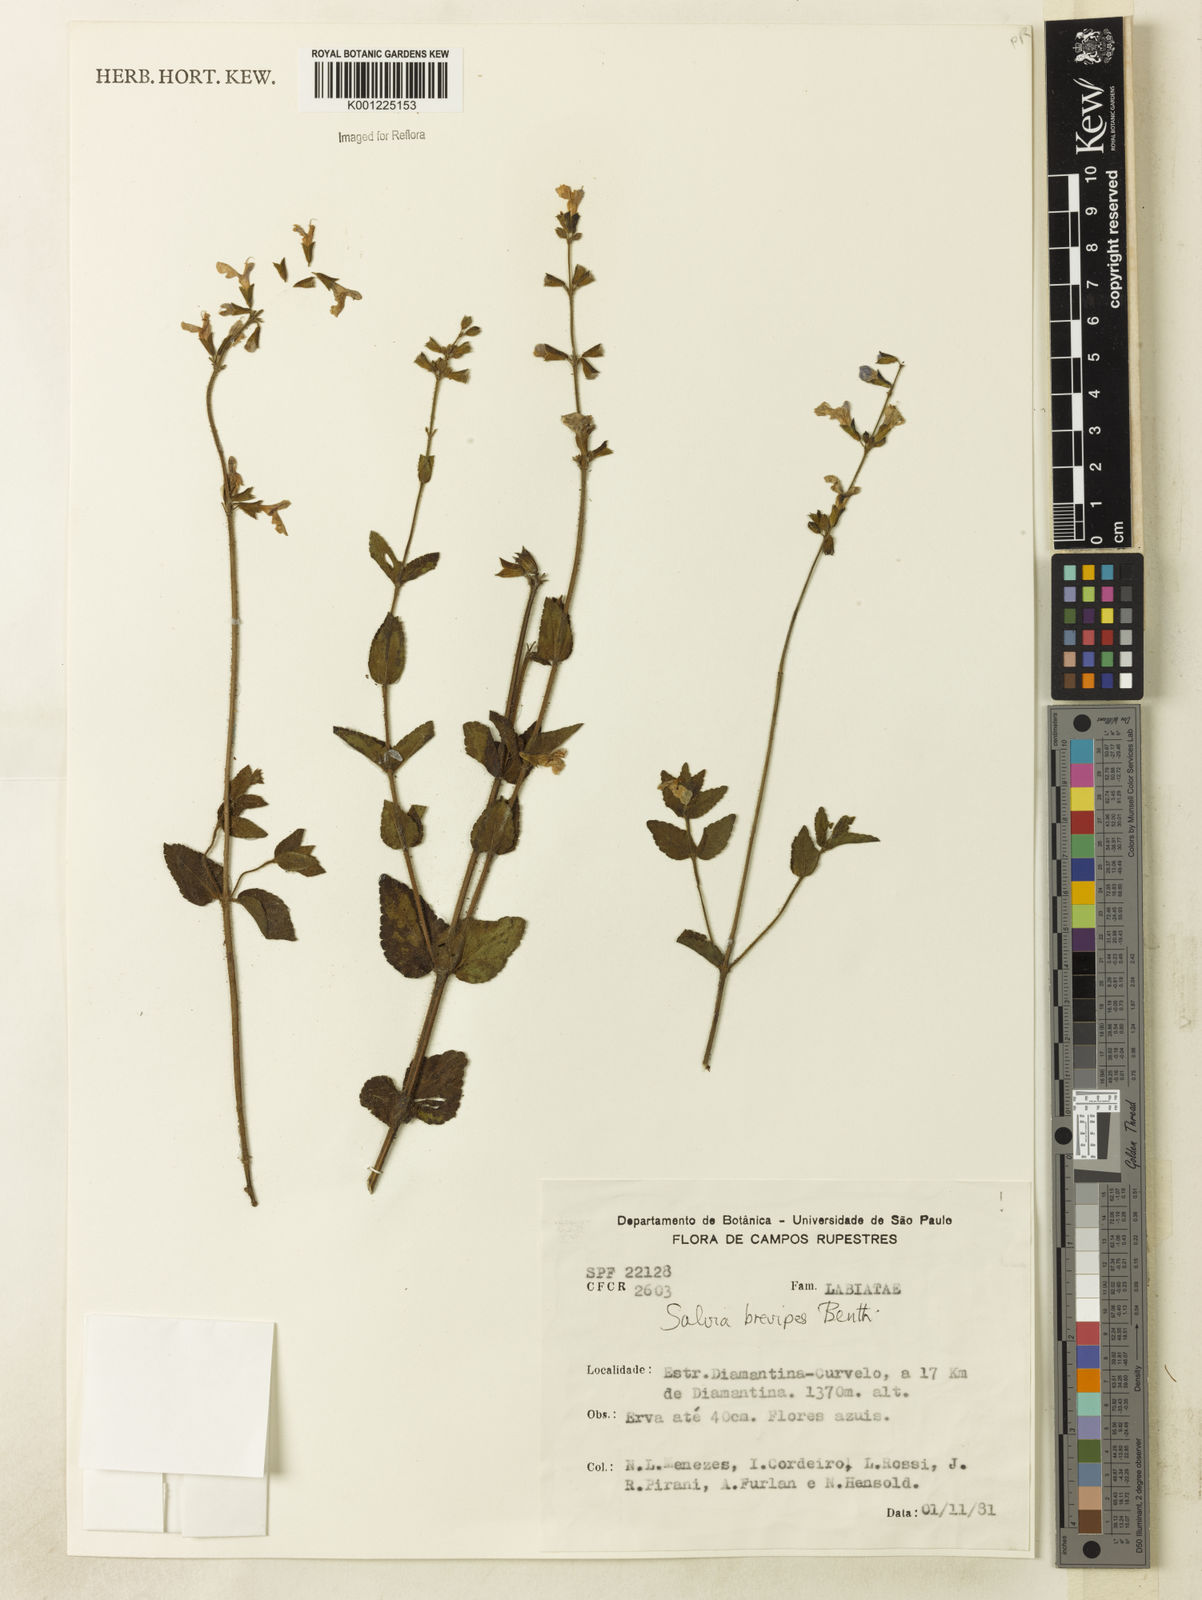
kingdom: Plantae
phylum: Tracheophyta
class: Magnoliopsida
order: Lamiales
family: Lamiaceae
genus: Salvia
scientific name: Salvia brevipes
